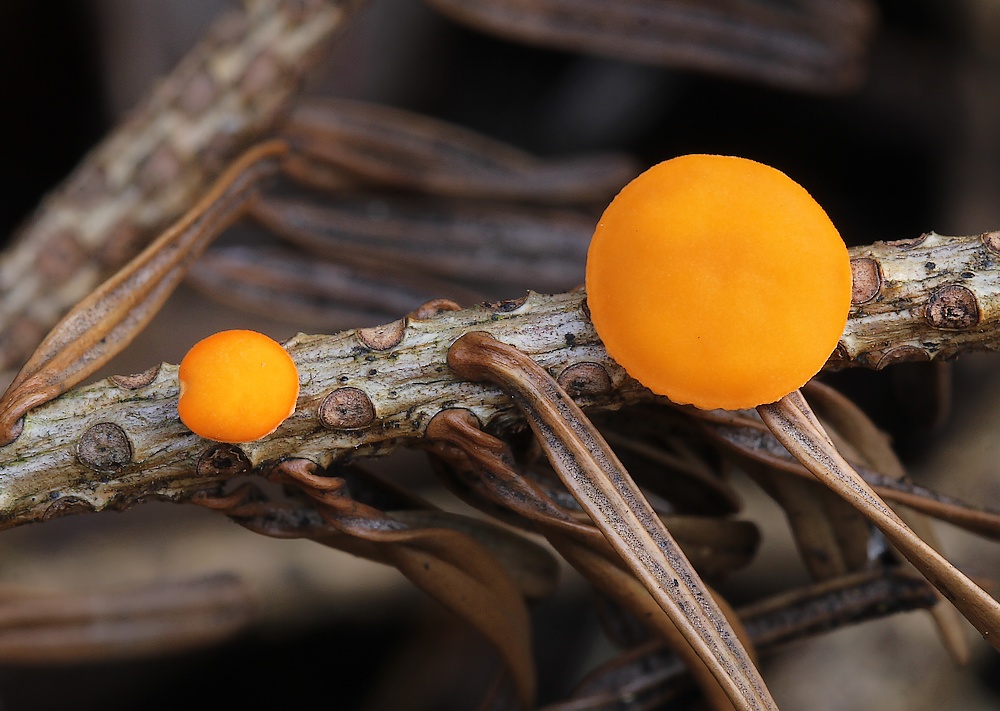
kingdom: Fungi
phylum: Ascomycota
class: Pezizomycetes
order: Pezizales
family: Sarcoscyphaceae
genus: Pithya
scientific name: Pithya vulgaris
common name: stor dukatbæger
